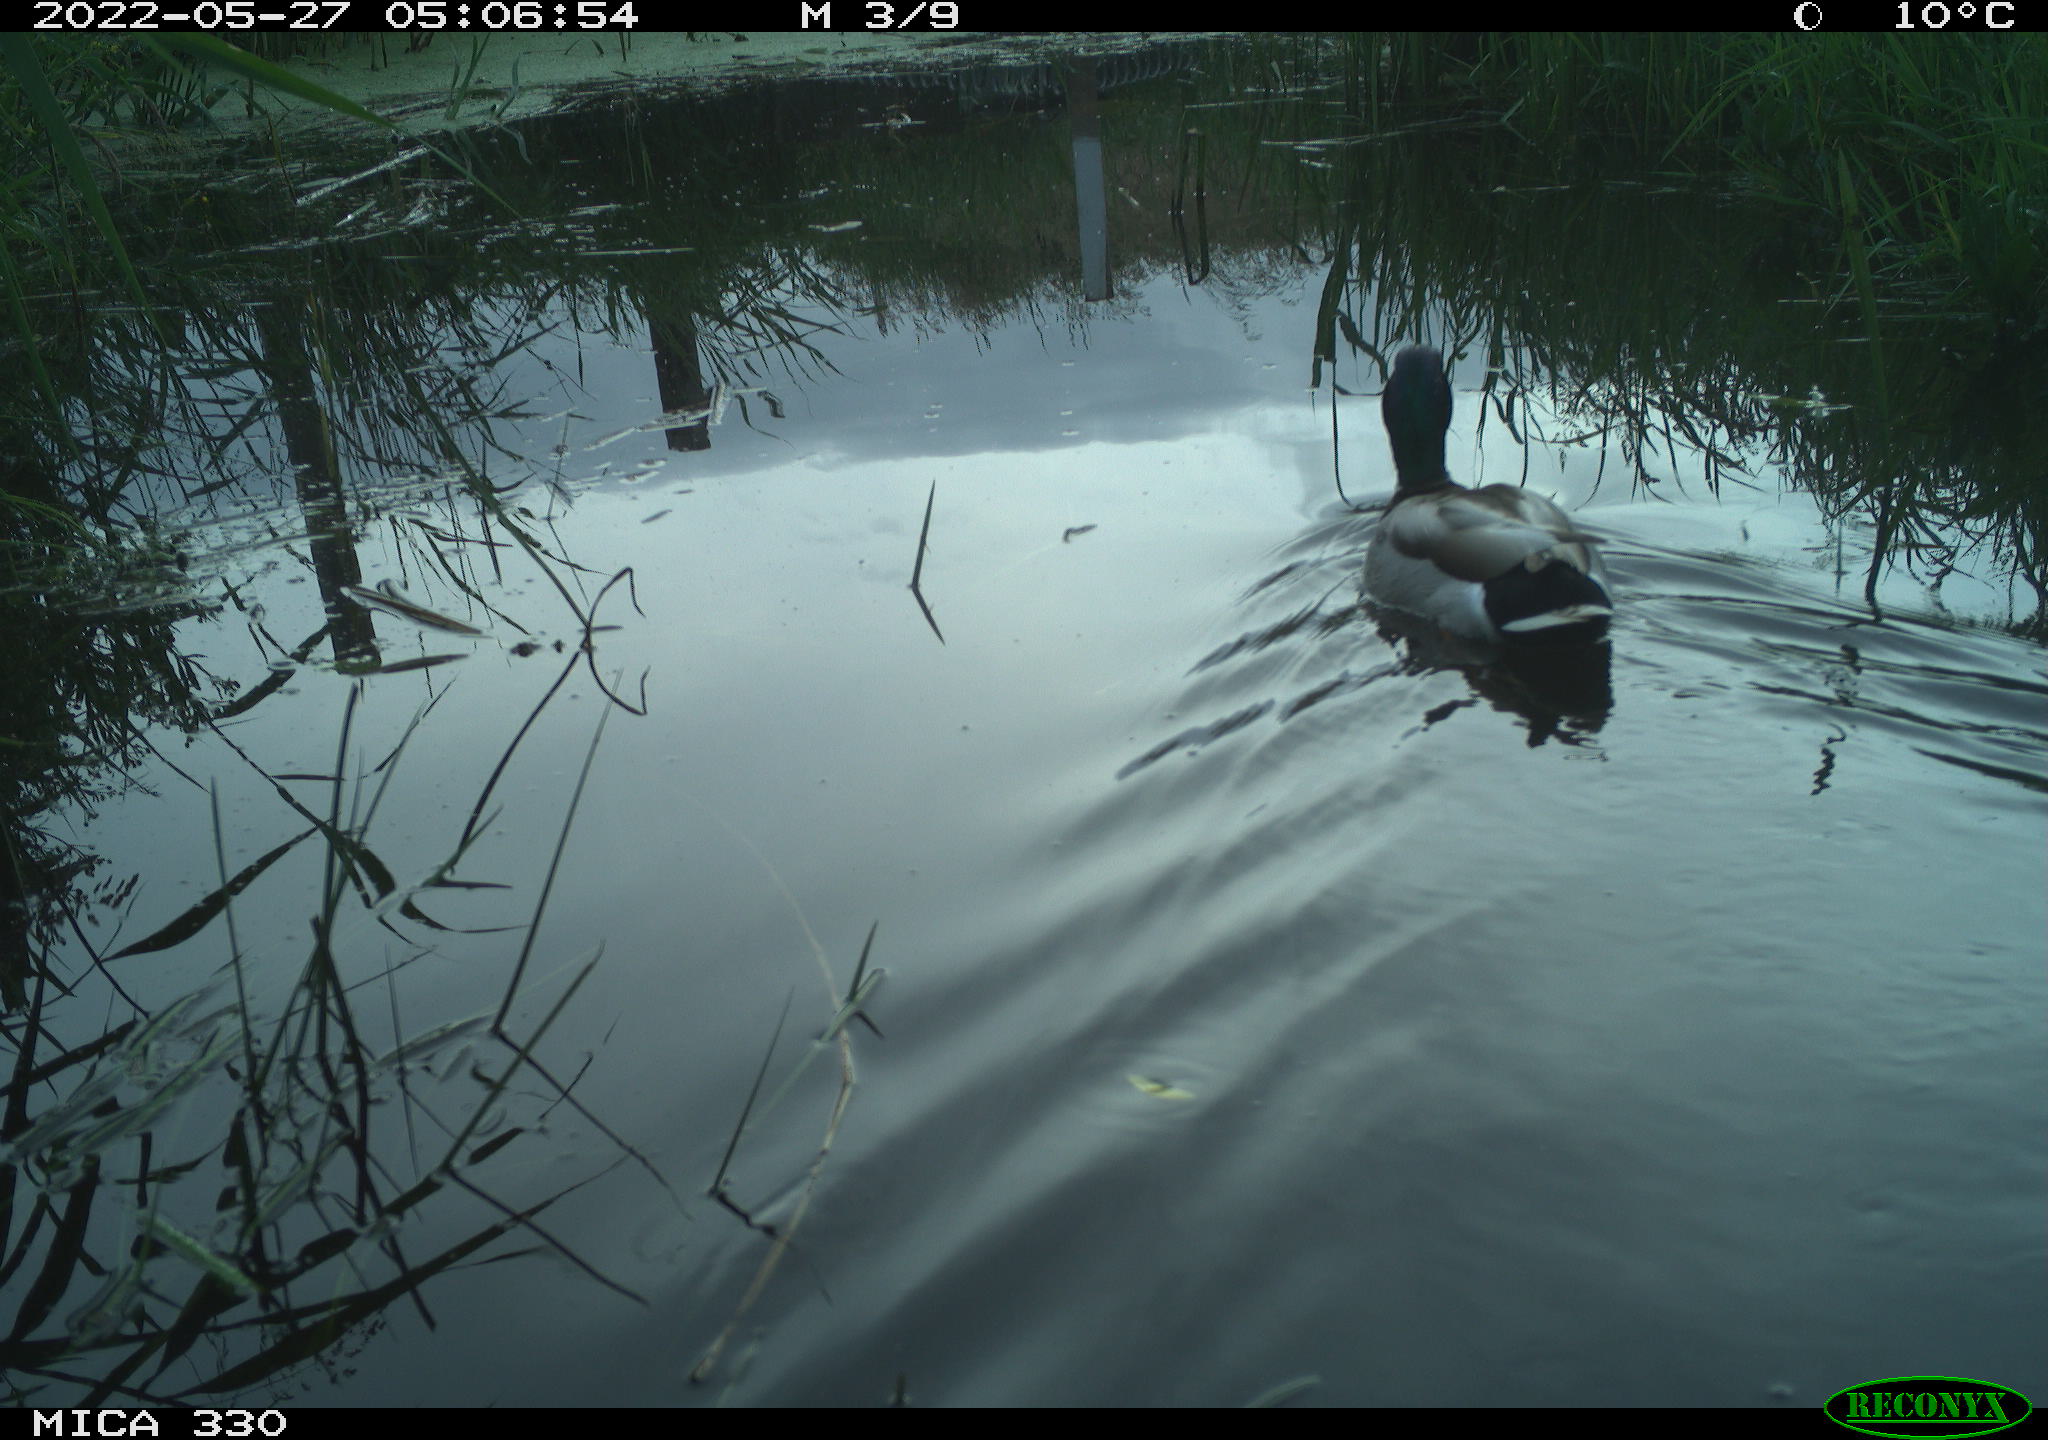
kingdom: Animalia
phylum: Chordata
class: Aves
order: Anseriformes
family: Anatidae
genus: Anas
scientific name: Anas platyrhynchos
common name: Mallard
